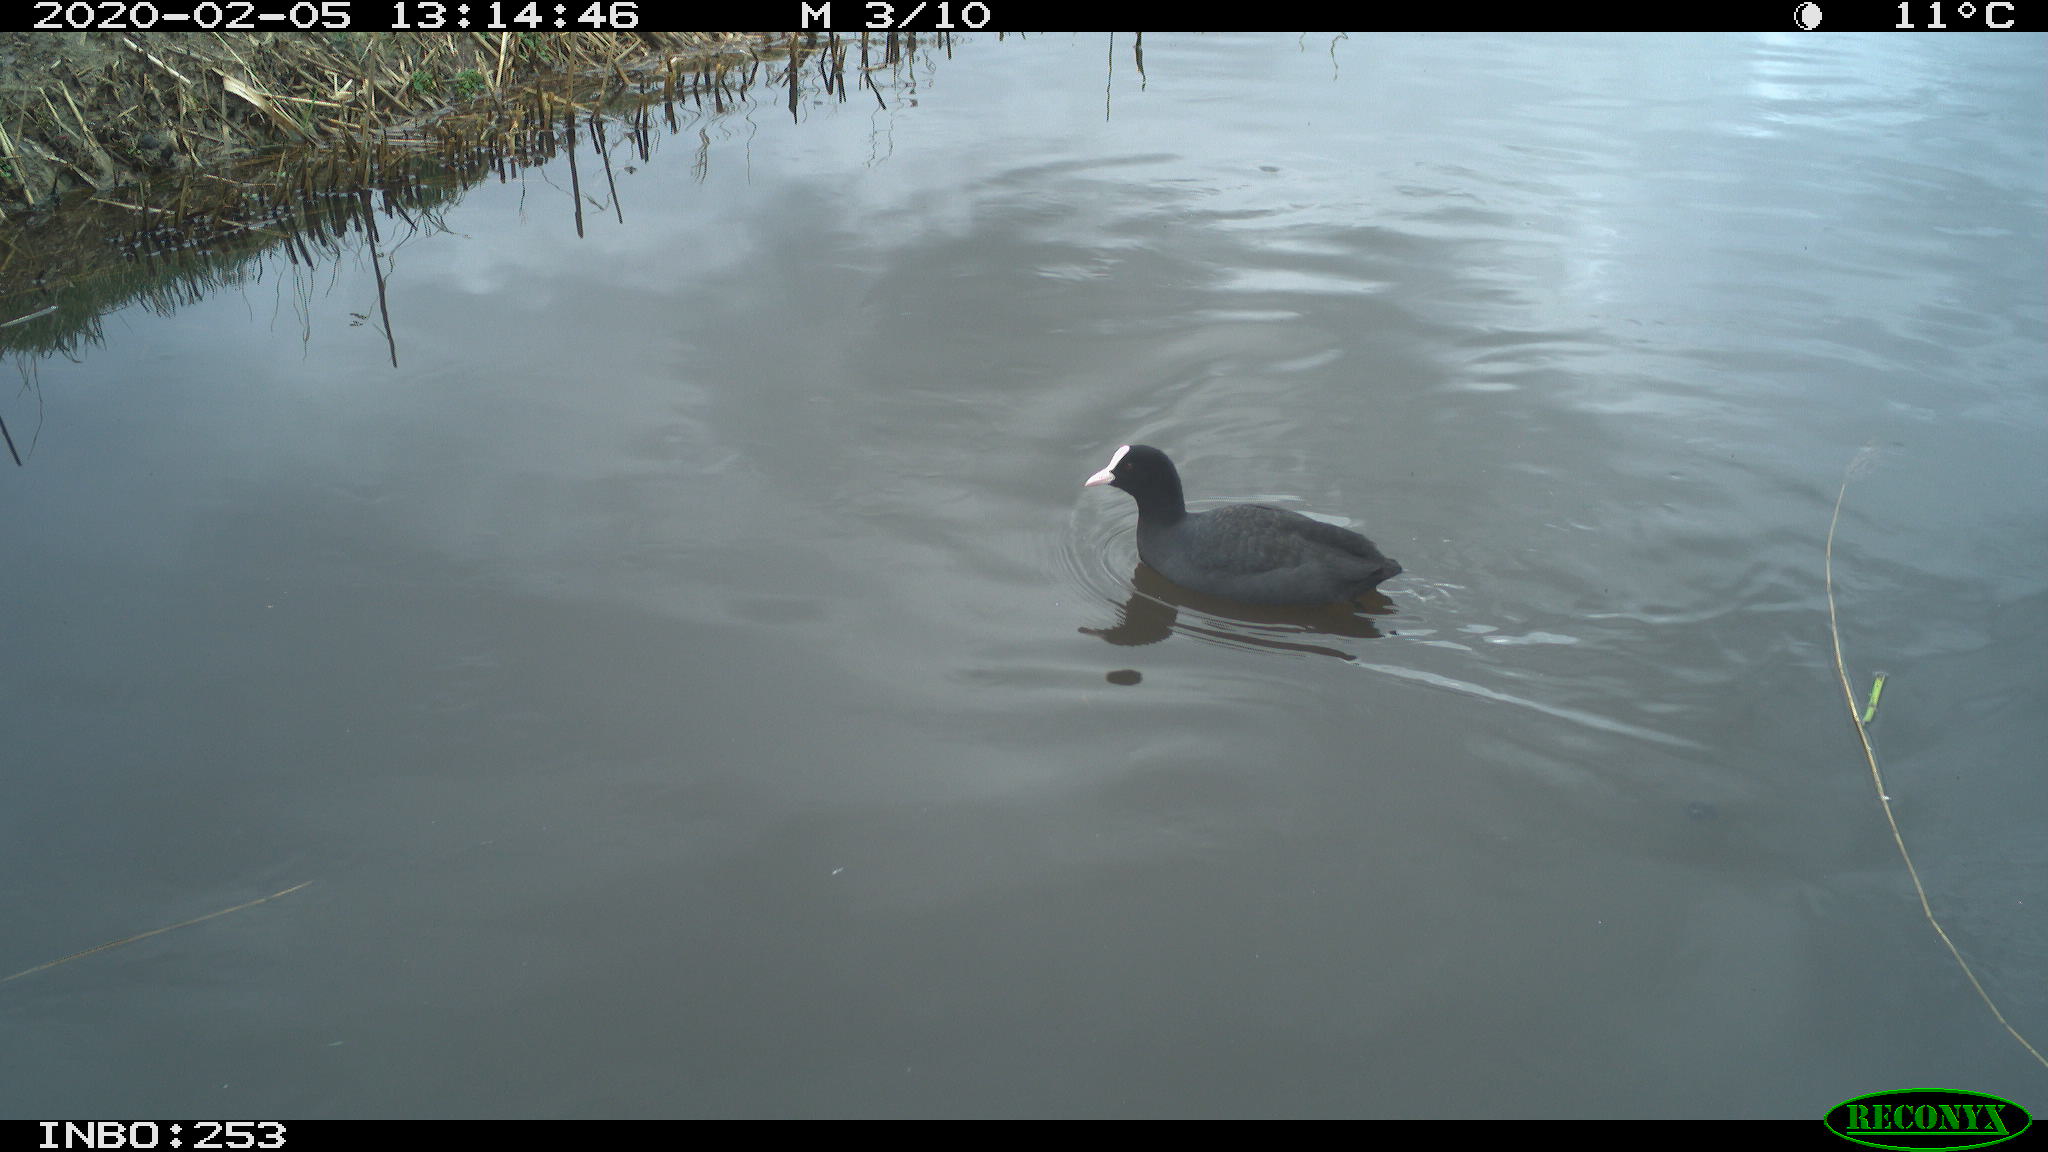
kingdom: Animalia
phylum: Chordata
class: Aves
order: Gruiformes
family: Rallidae
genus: Fulica
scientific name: Fulica atra
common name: Eurasian coot
